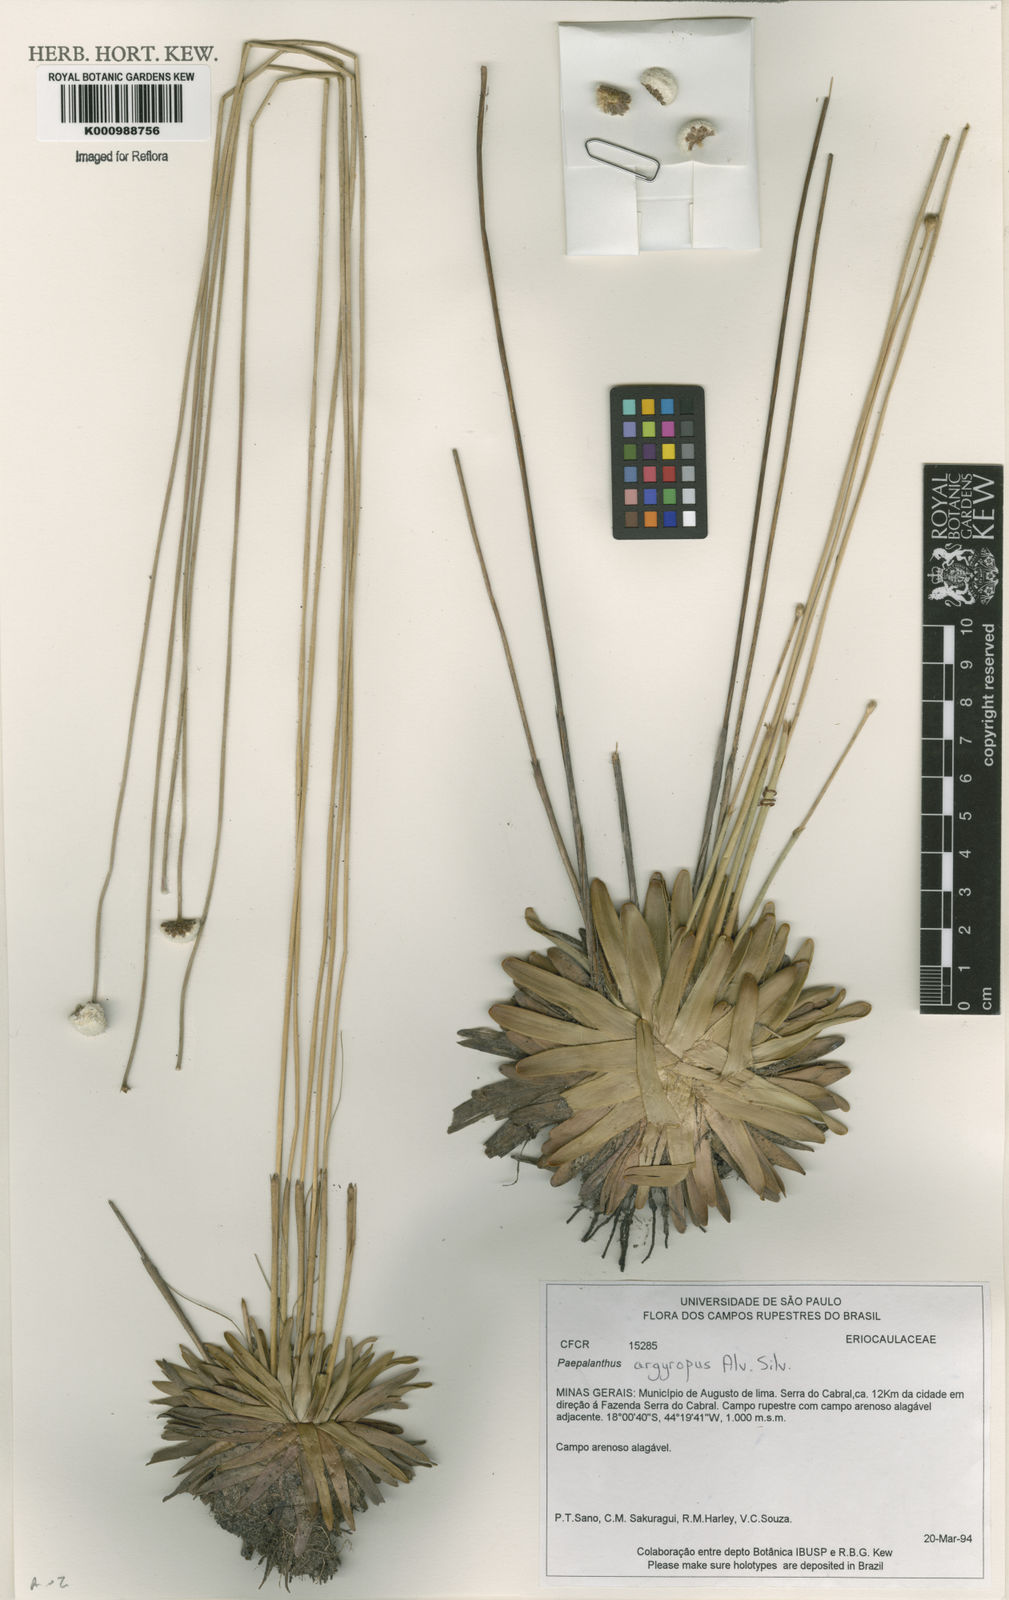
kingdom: Plantae
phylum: Tracheophyta
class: Liliopsida
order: Poales
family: Eriocaulaceae
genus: Paepalanthus
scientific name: Paepalanthus argyropus
